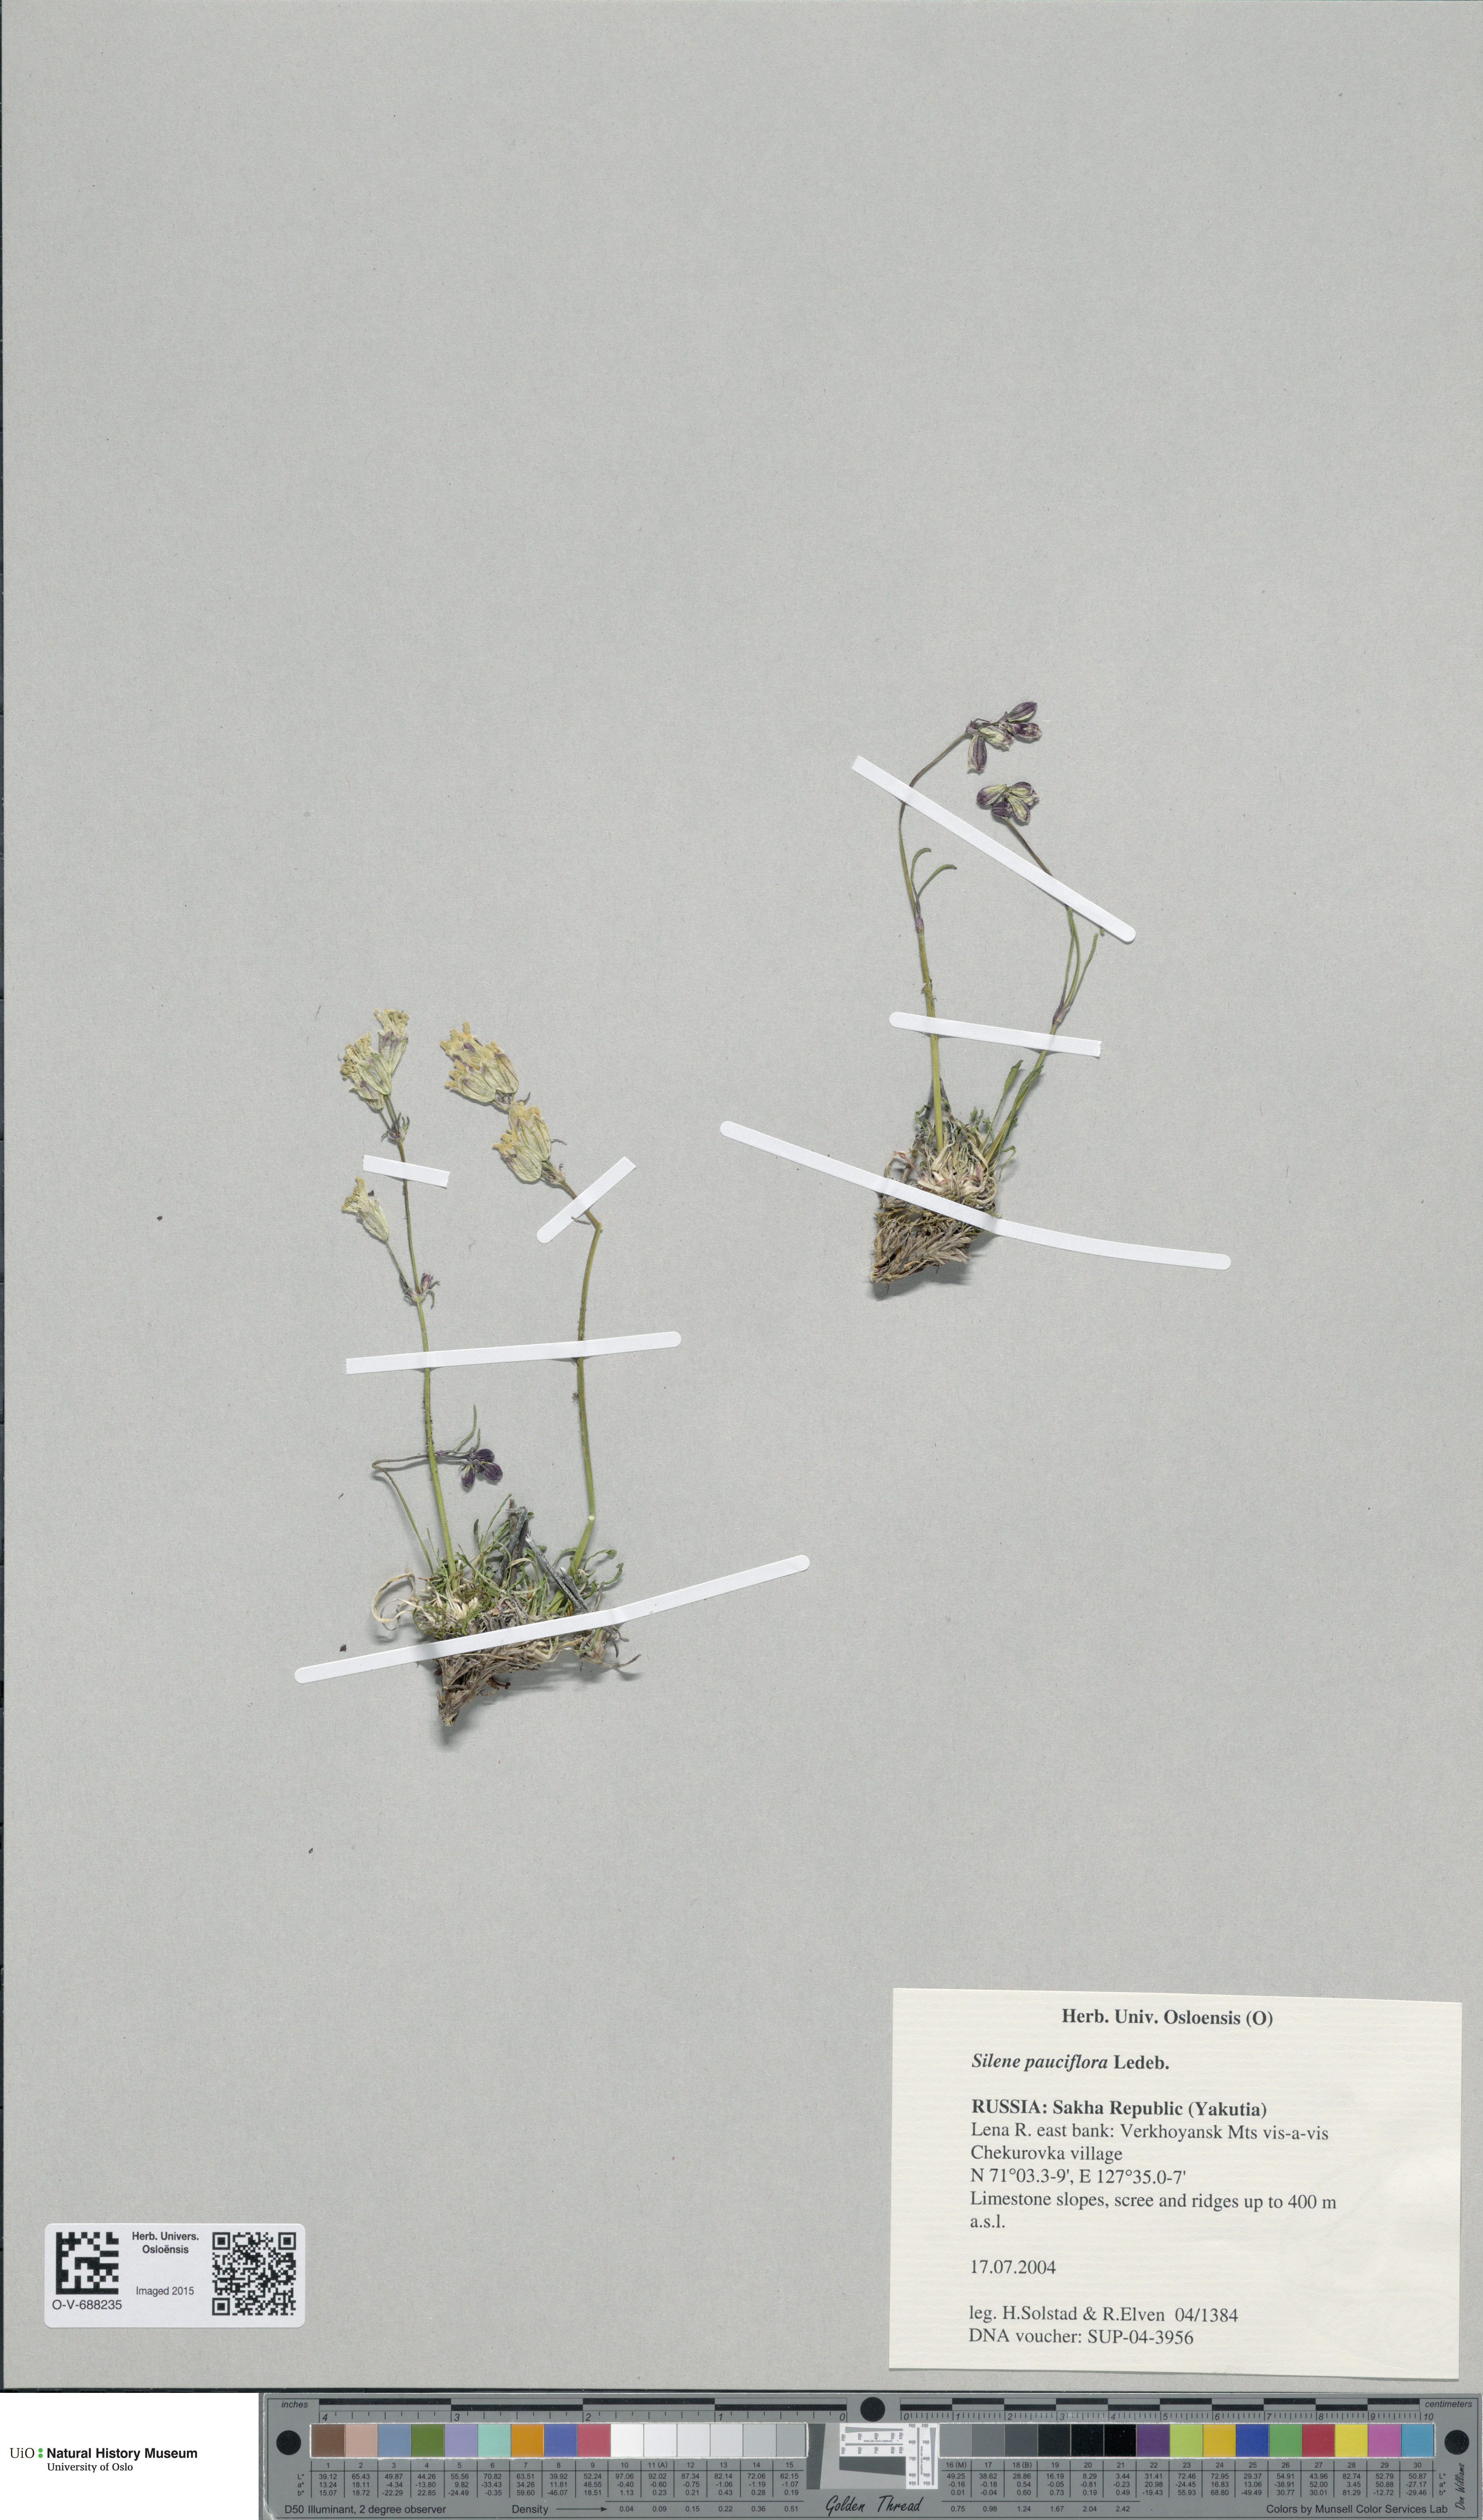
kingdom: Plantae
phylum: Tracheophyta
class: Magnoliopsida
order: Caryophyllales
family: Caryophyllaceae
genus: Silene
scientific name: Silene pauciflora
